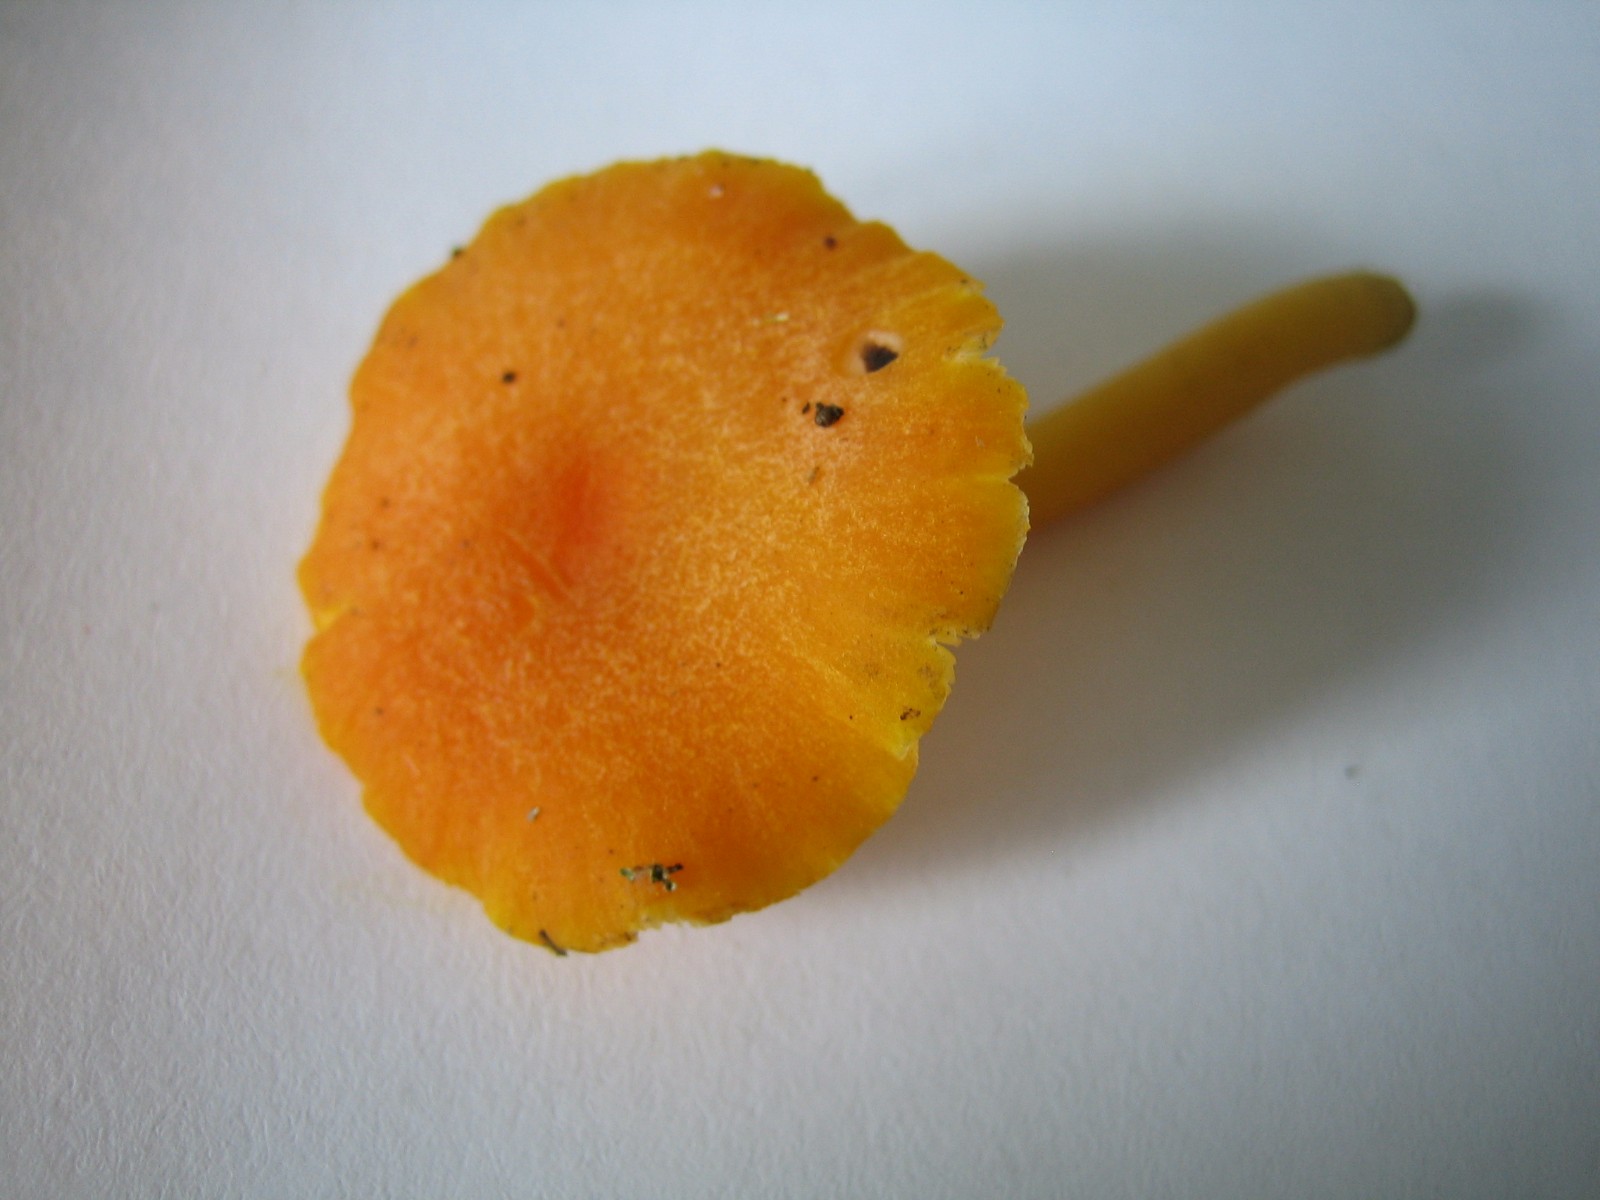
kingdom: Fungi
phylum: Basidiomycota
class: Agaricomycetes
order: Agaricales
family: Hygrophoraceae
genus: Hygrocybe
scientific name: Hygrocybe miniata
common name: mønje-vokshat
